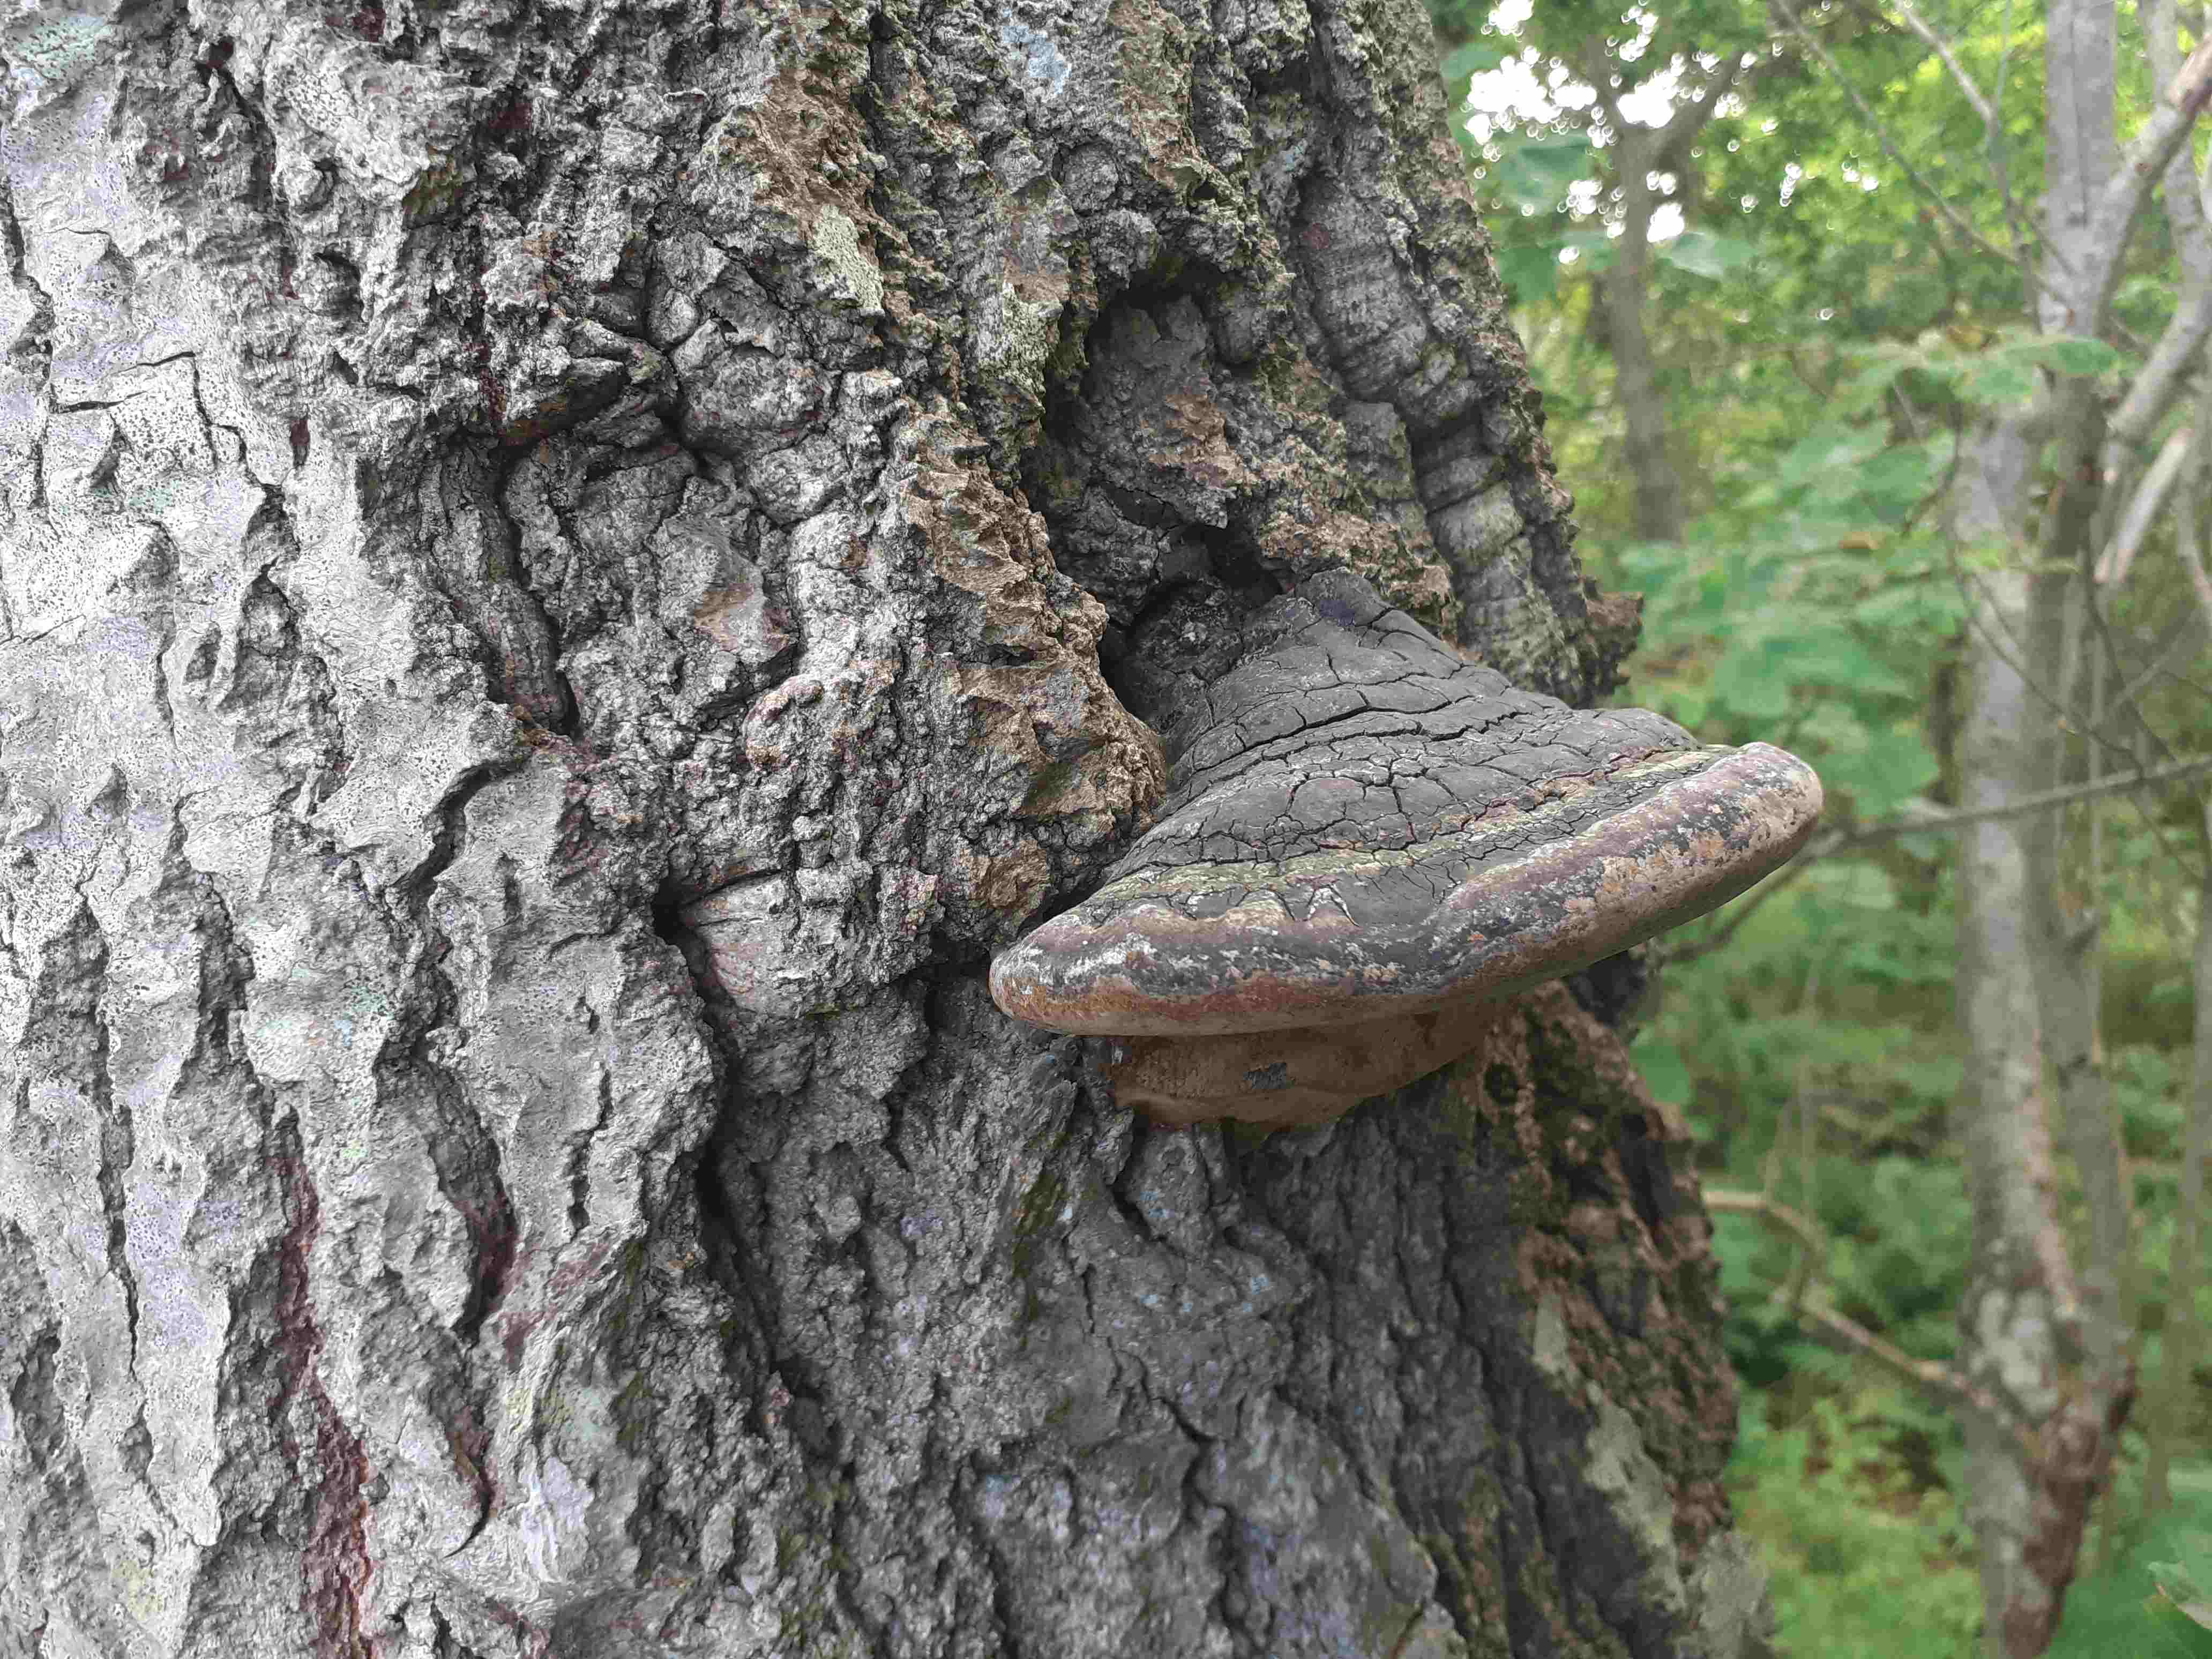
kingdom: Fungi
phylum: Basidiomycota
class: Agaricomycetes
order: Hymenochaetales
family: Hymenochaetaceae
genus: Phellinus
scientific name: Phellinus populicola
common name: poppel-ildporesvamp
